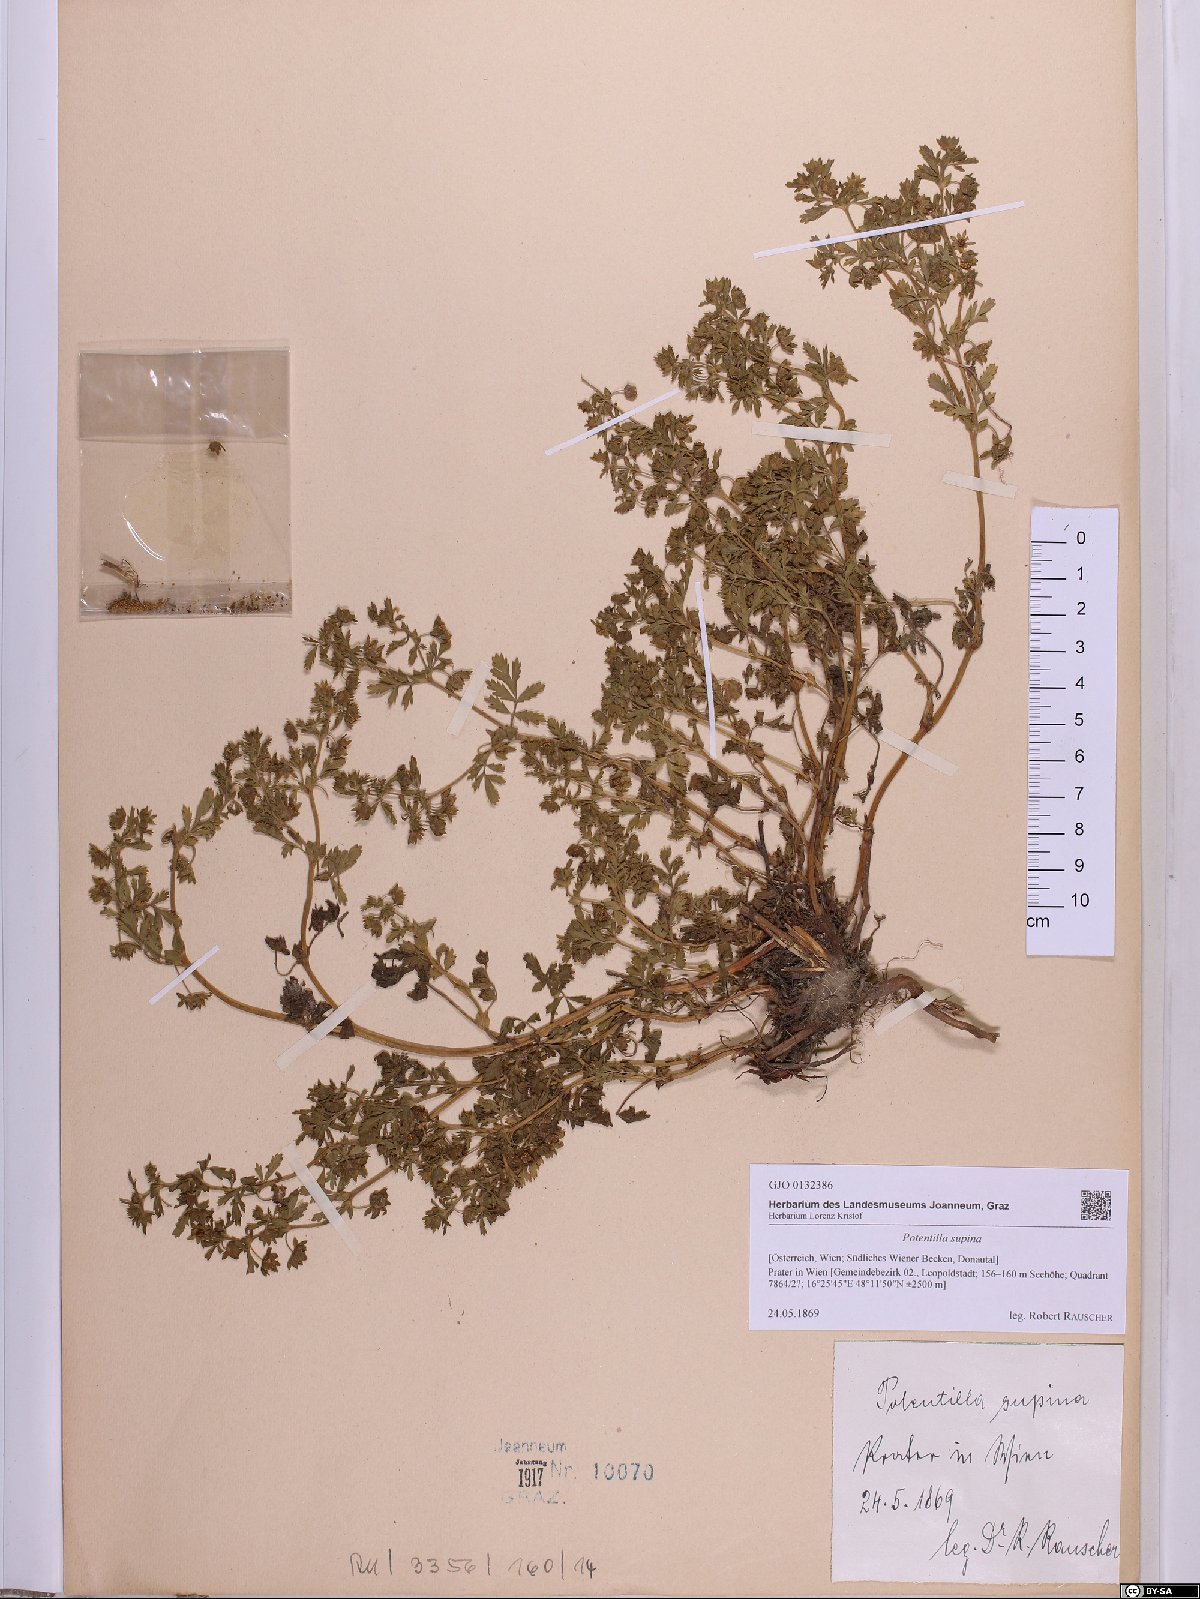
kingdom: Plantae
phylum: Tracheophyta
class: Magnoliopsida
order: Rosales
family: Rosaceae
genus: Potentilla
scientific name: Potentilla supina
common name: Prostrate cinquefoil
